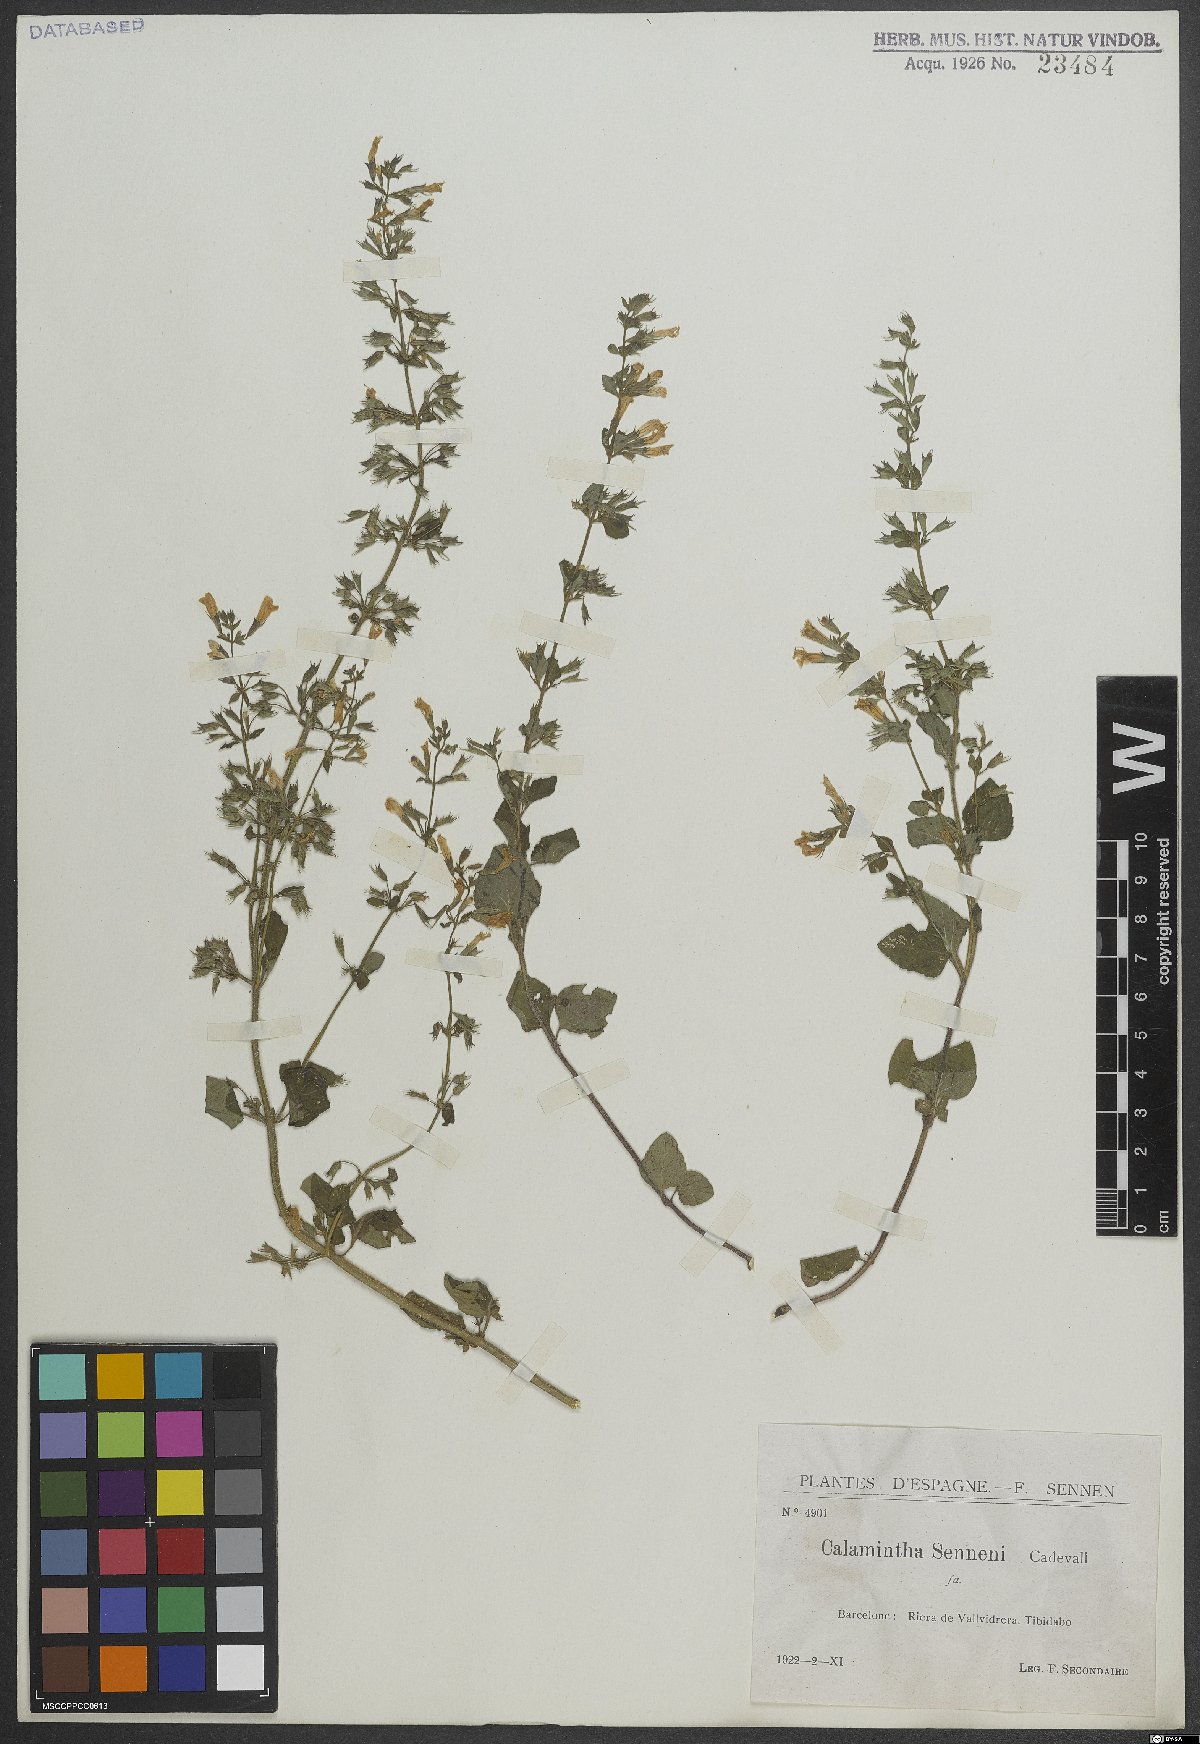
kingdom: Plantae
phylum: Tracheophyta
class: Magnoliopsida
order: Lamiales
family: Lamiaceae
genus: Clinopodium
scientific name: Clinopodium nepeta
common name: Lesser calamint
